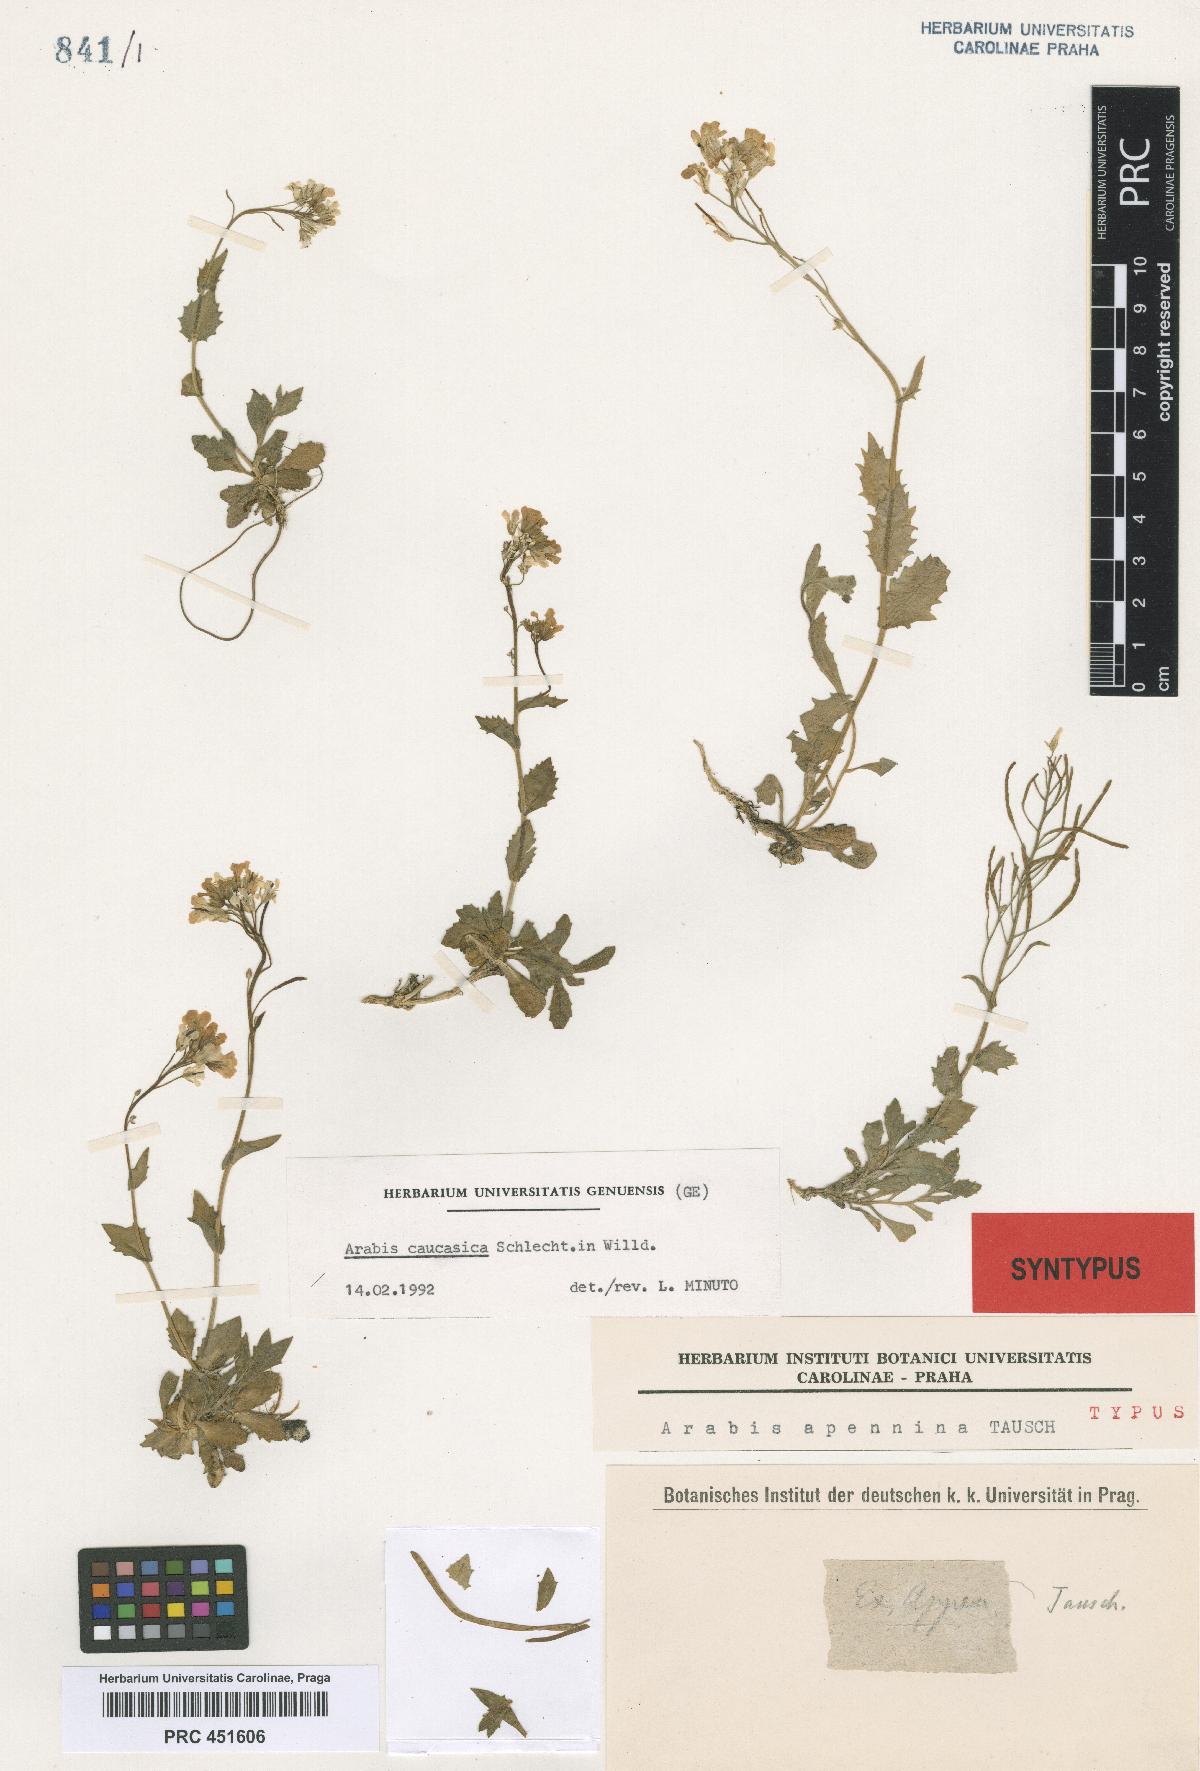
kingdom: Plantae
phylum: Tracheophyta
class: Magnoliopsida
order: Brassicales
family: Brassicaceae
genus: Arabis
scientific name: Arabis apennina
